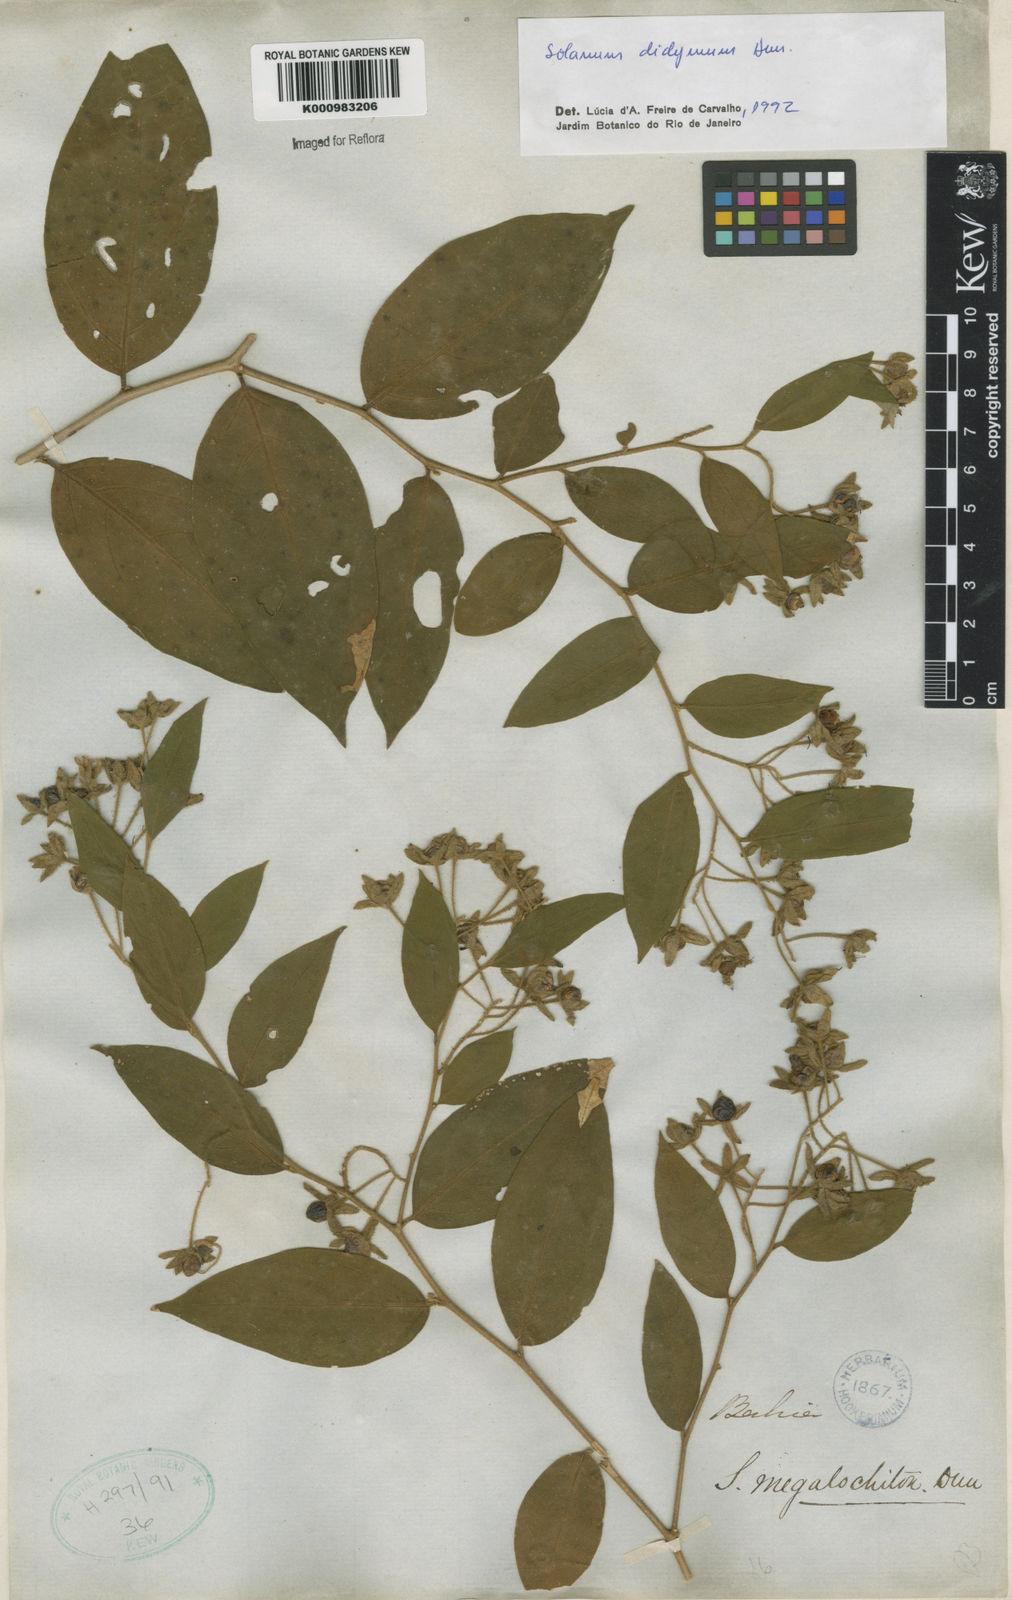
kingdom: Plantae
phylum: Tracheophyta
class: Magnoliopsida
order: Solanales
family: Solanaceae
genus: Solanum
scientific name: Solanum
